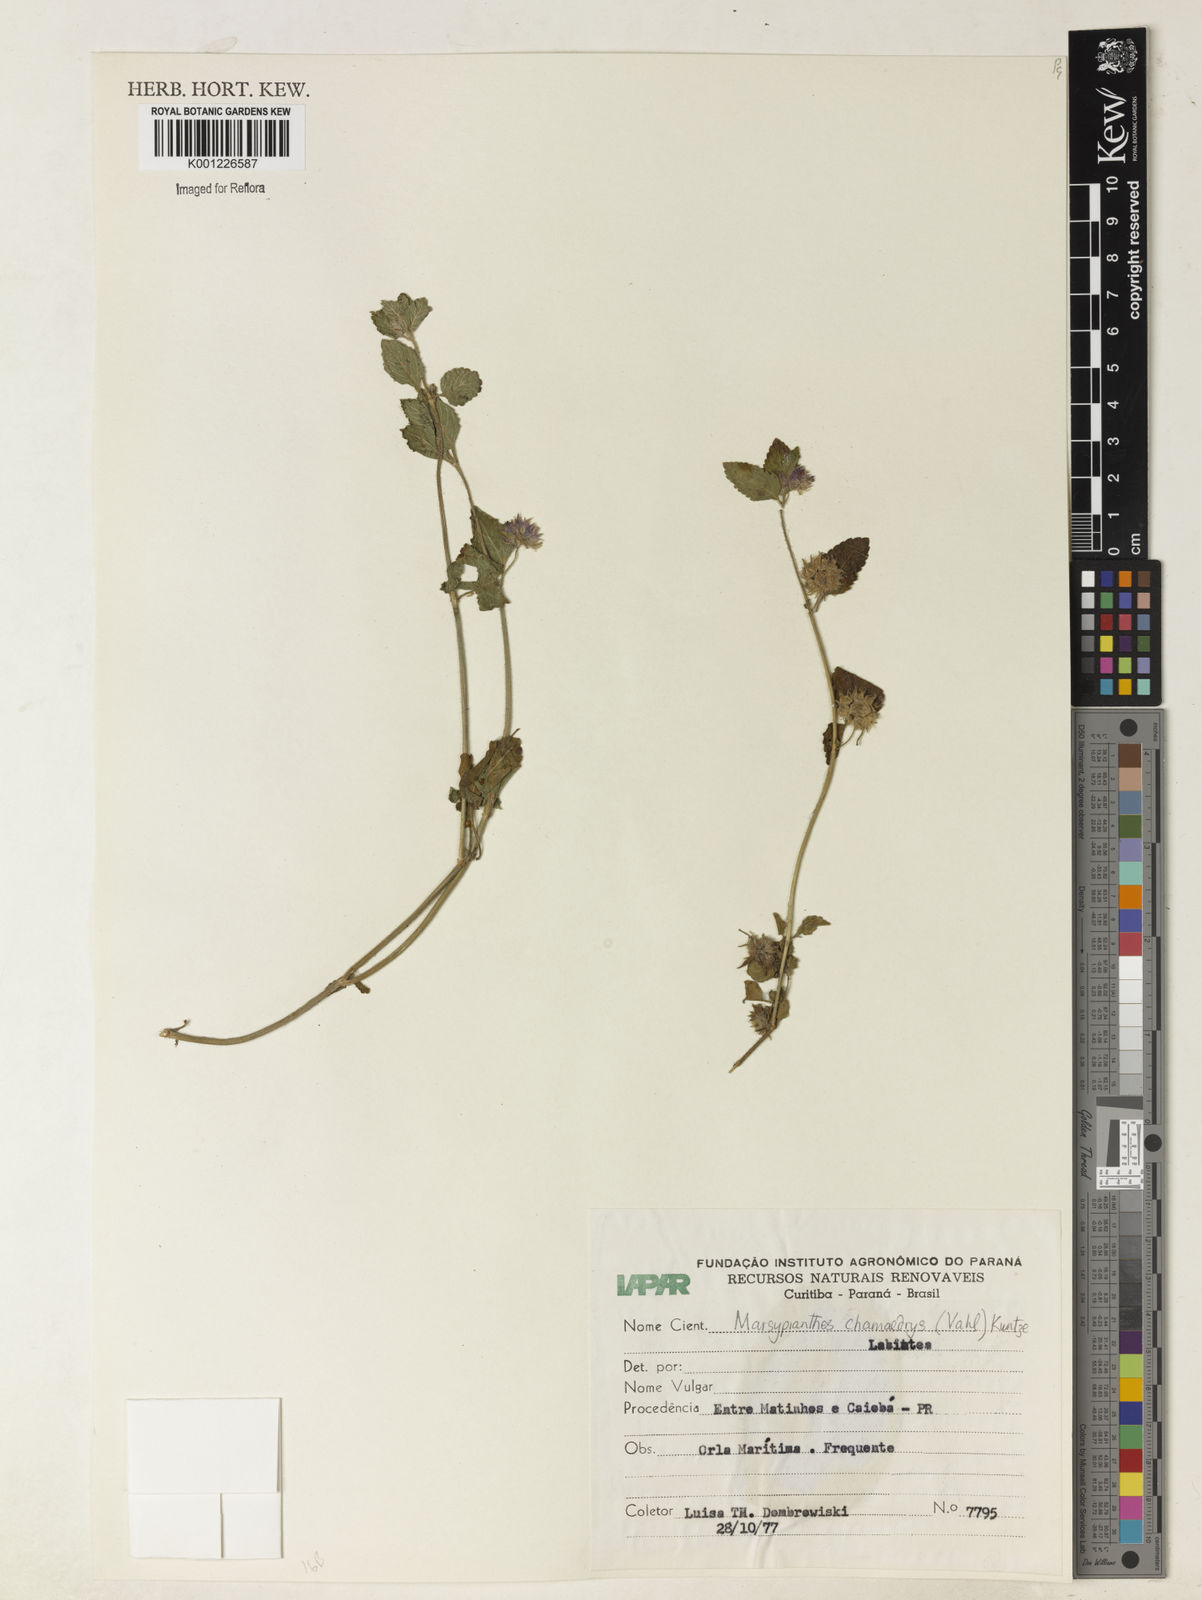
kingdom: Plantae
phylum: Tracheophyta
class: Magnoliopsida
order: Lamiales
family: Lamiaceae
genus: Marsypianthes
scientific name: Marsypianthes chamaedrys
